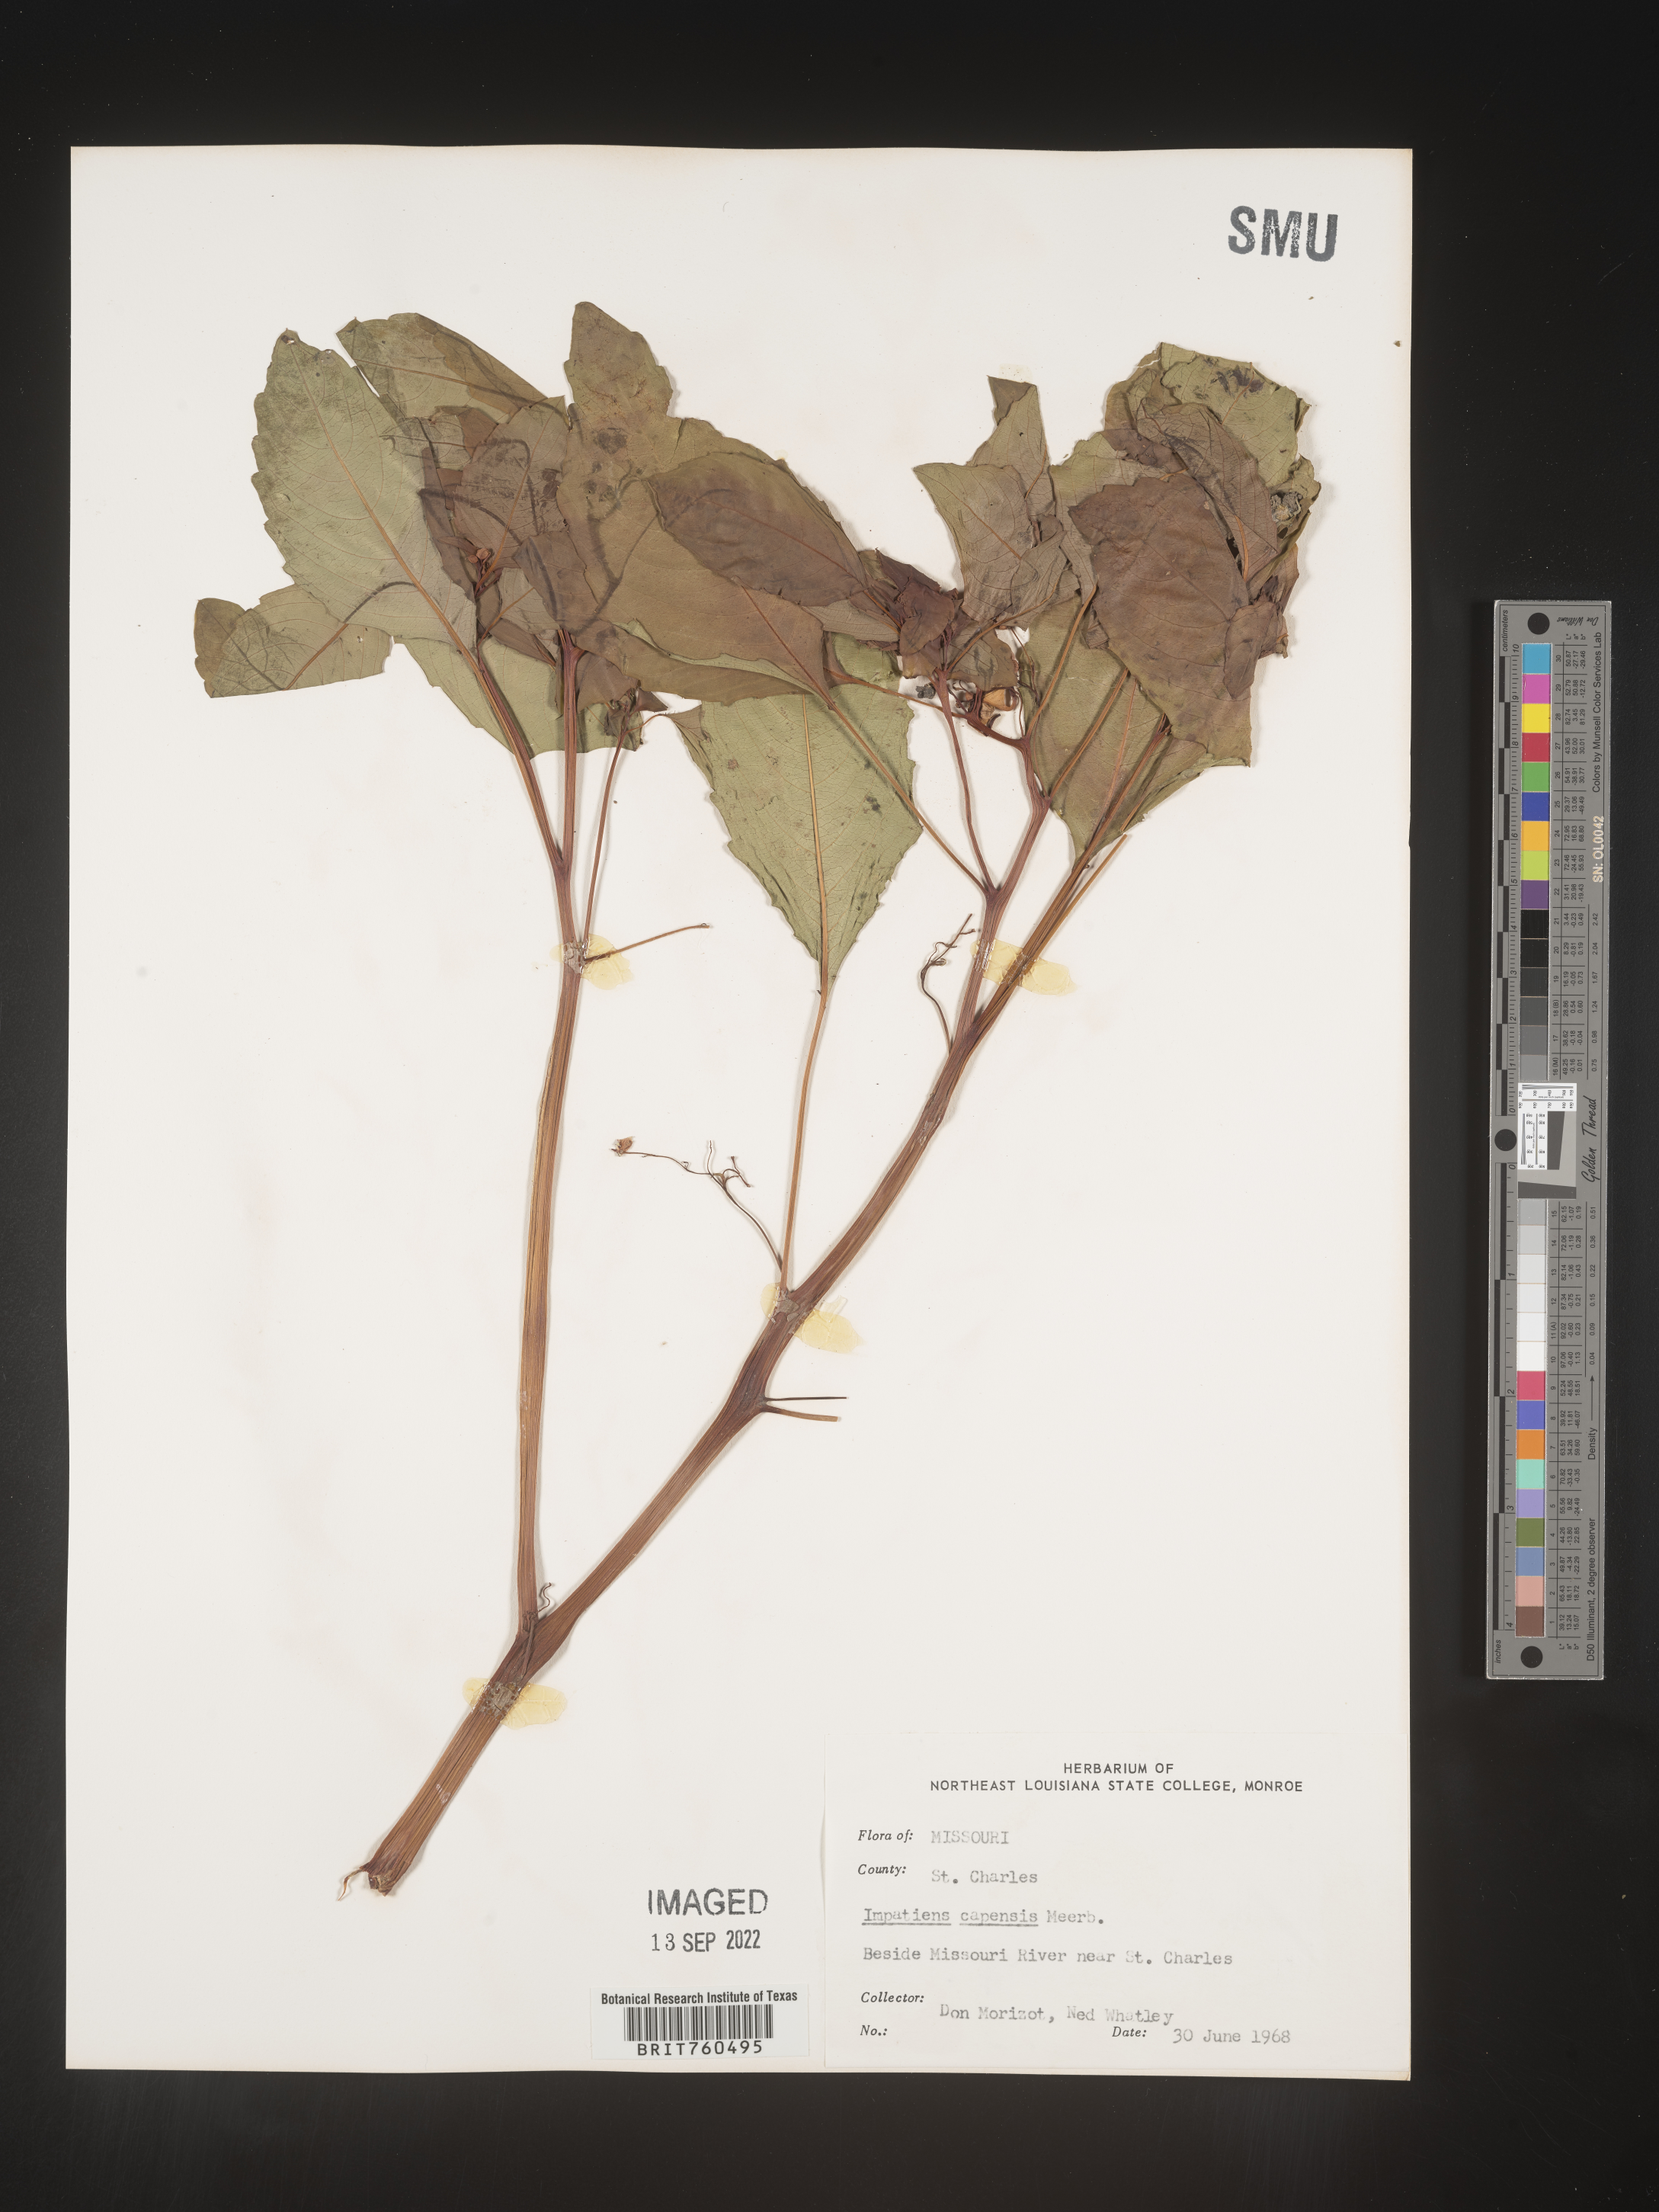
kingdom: Plantae
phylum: Tracheophyta
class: Magnoliopsida
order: Ericales
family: Balsaminaceae
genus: Impatiens
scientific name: Impatiens capensis
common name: Orange balsam
